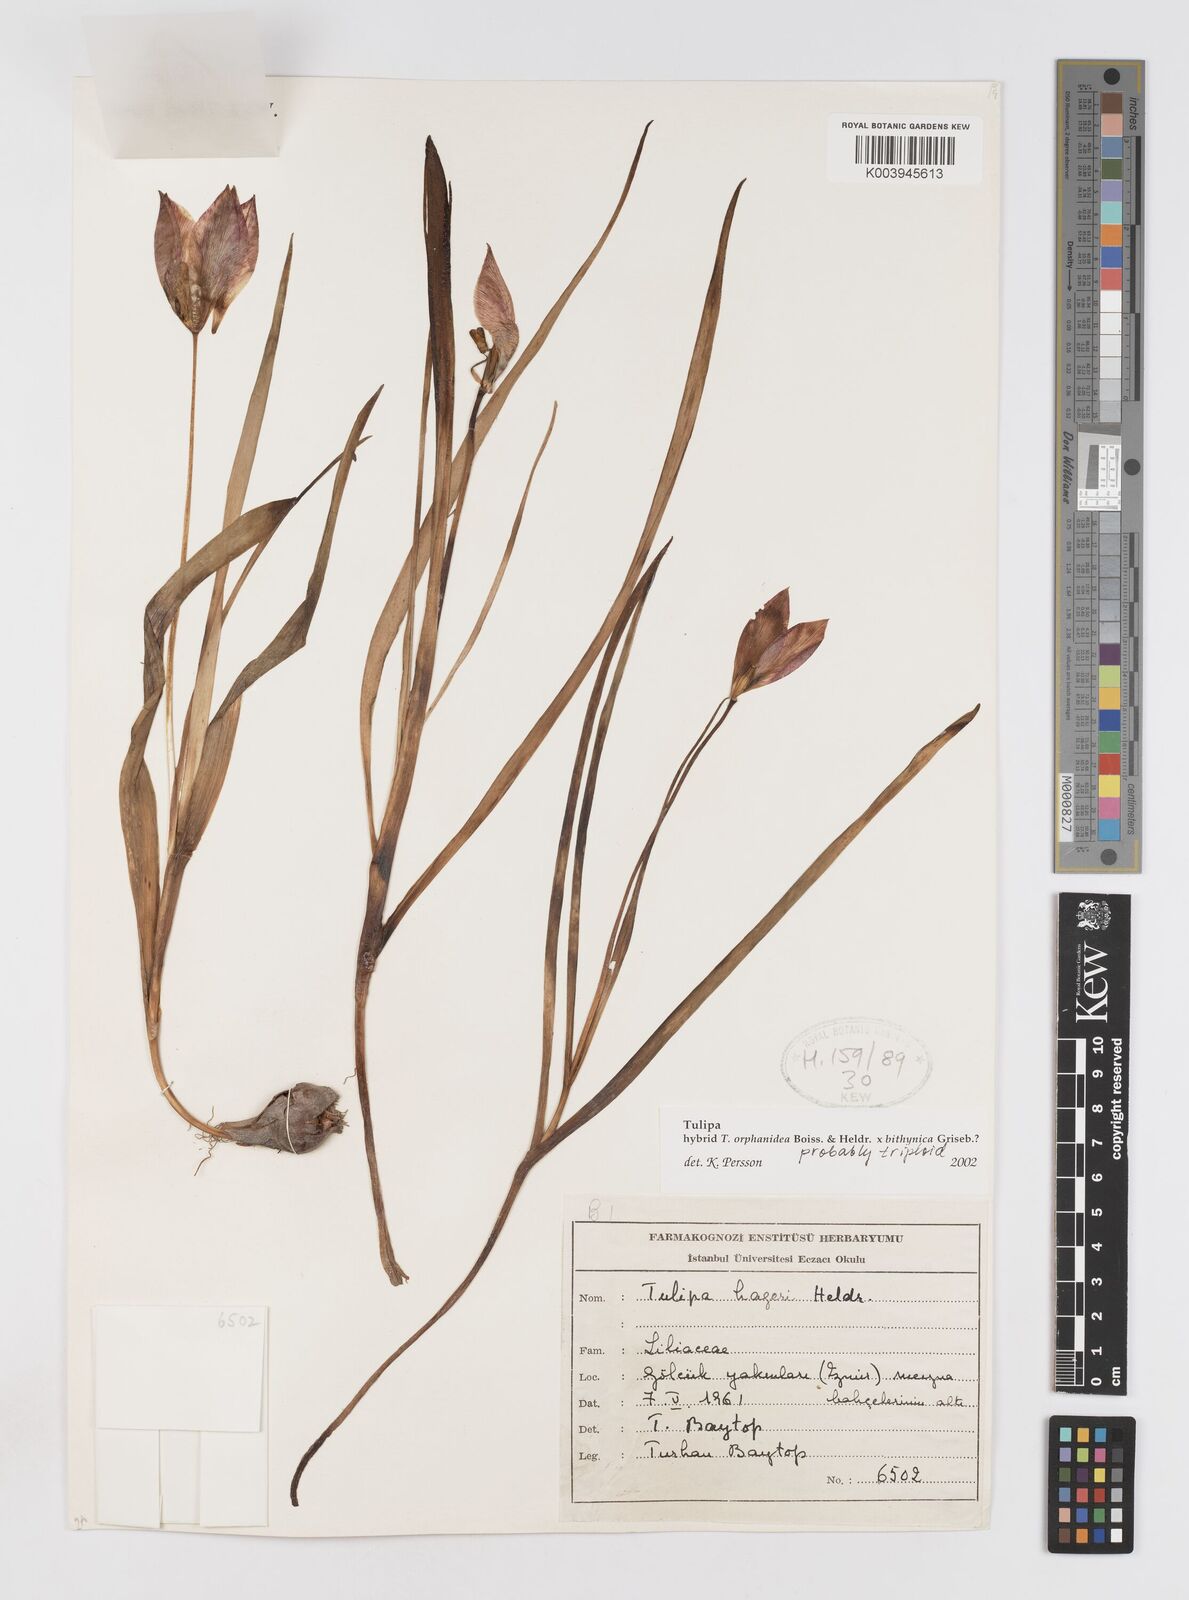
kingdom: Plantae
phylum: Tracheophyta
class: Liliopsida
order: Liliales
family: Liliaceae
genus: Tulipa
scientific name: Tulipa orphanidea
